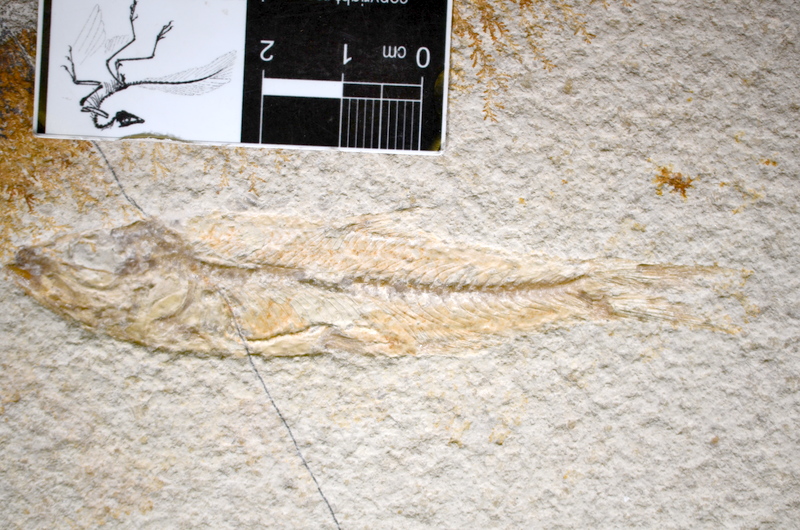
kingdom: Animalia
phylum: Chordata
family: Ascalaboidae
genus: Ascalabos
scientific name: Ascalabos voithii
